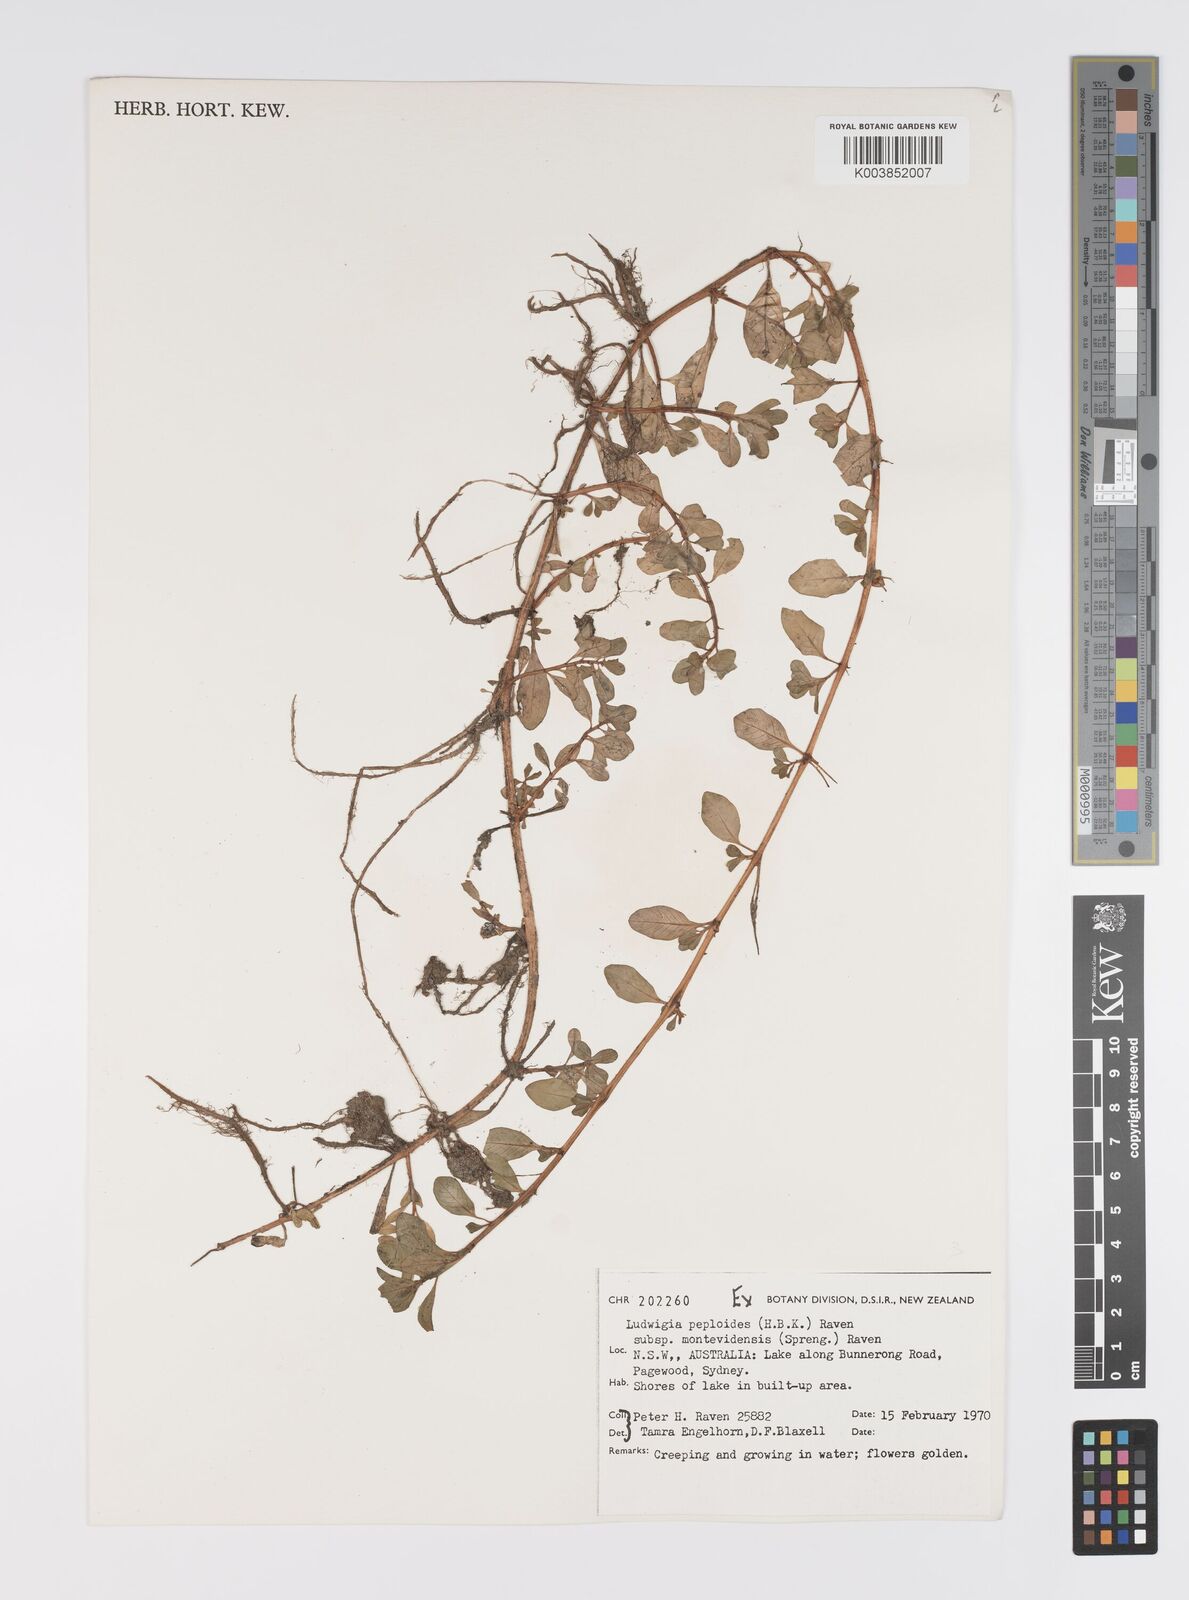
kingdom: Plantae
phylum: Tracheophyta
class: Magnoliopsida
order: Myrtales
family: Onagraceae
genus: Ludwigia
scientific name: Ludwigia peploides
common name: Floating primrose-willow
